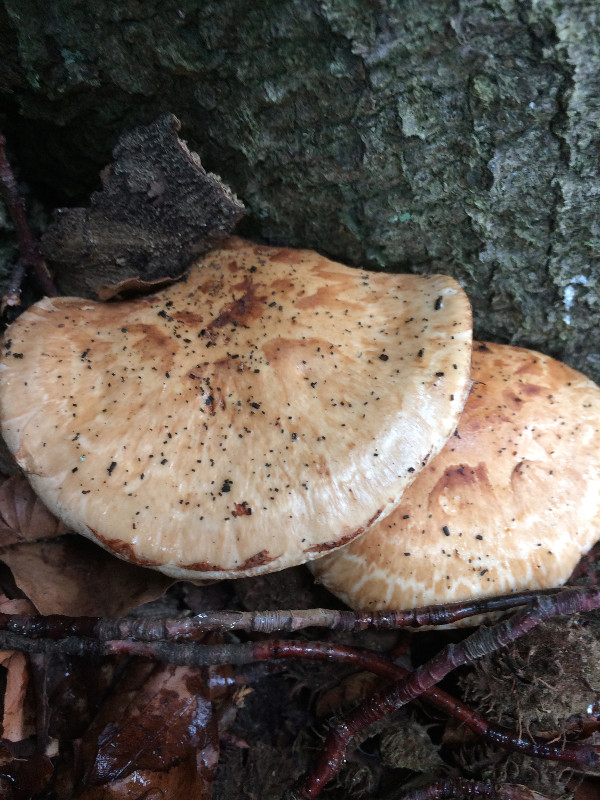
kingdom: Fungi
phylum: Basidiomycota
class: Agaricomycetes
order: Agaricales
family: Hymenogastraceae
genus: Hebeloma
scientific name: Hebeloma radicosum
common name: pælerods-tåreblad
